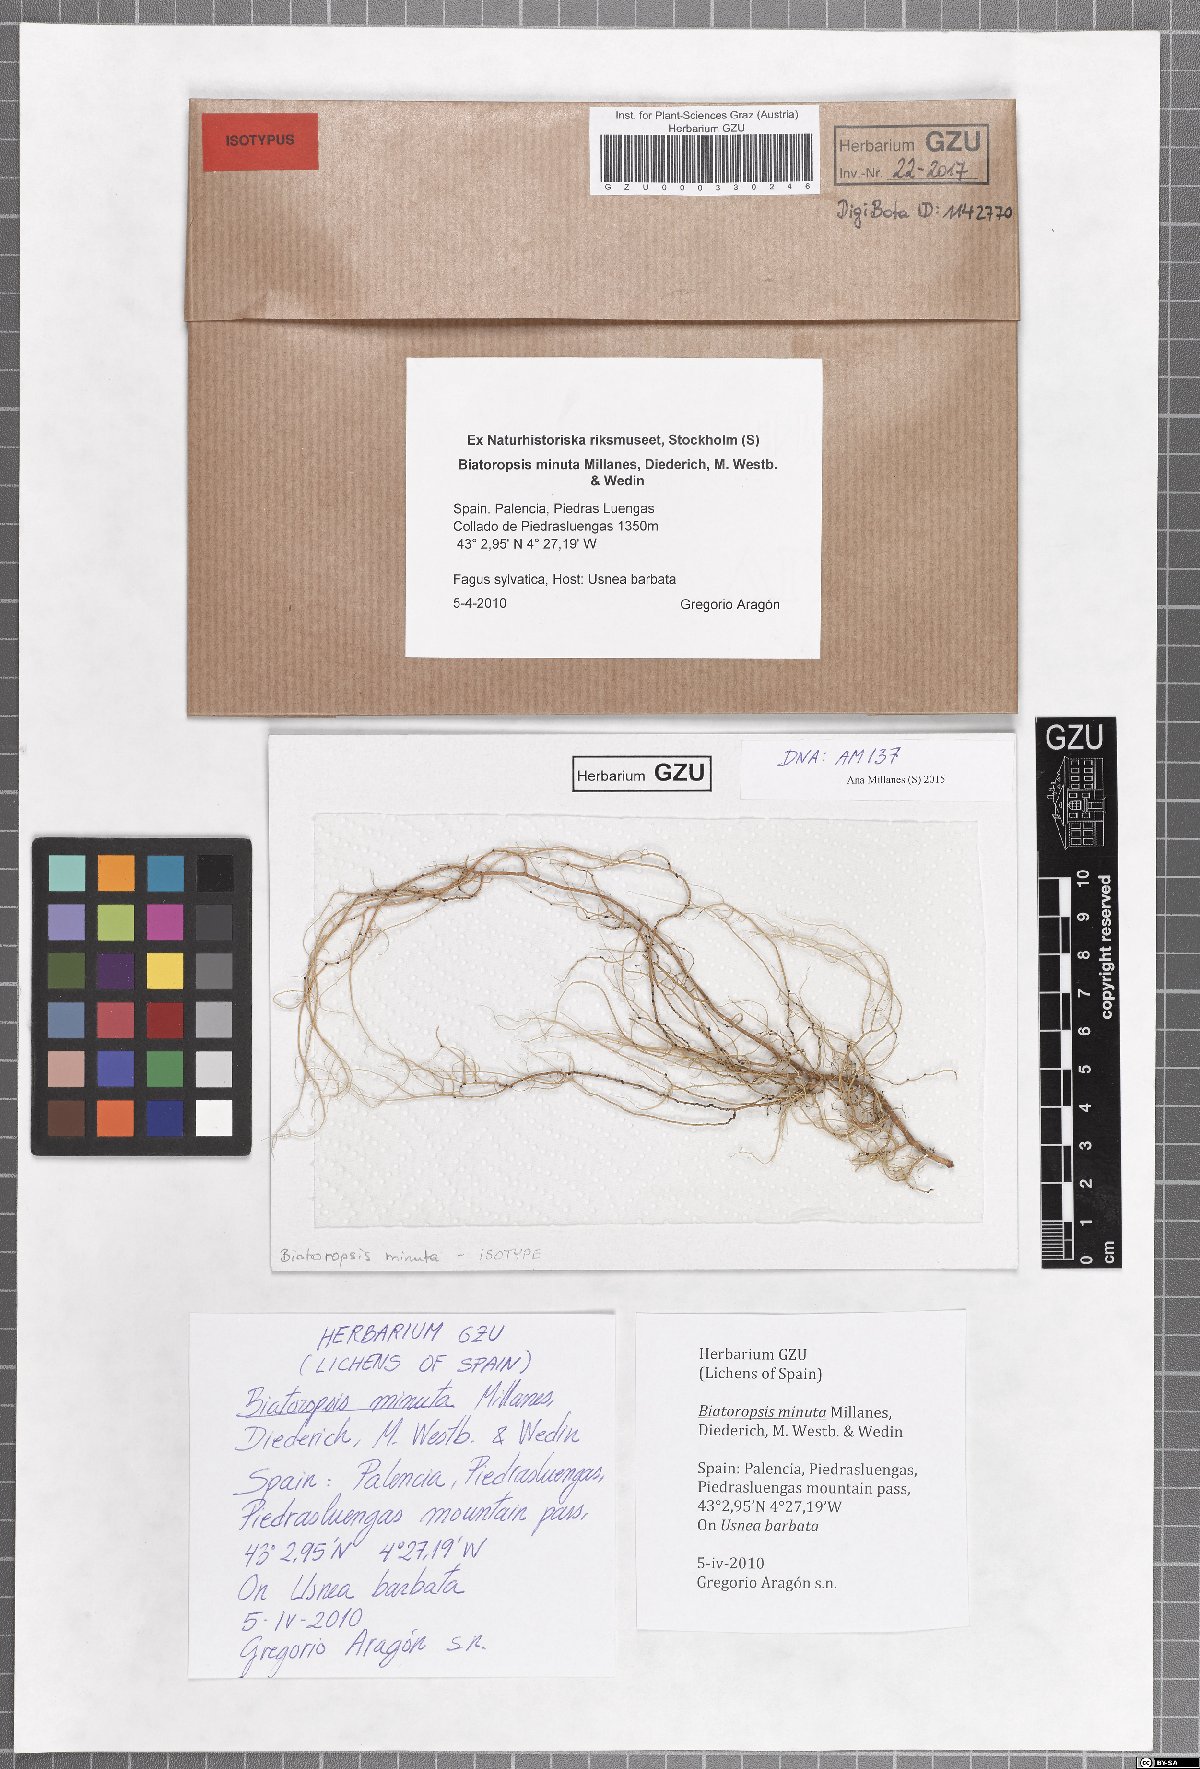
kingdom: Fungi
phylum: Basidiomycota
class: Tremellomycetes
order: Tremellales
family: Bulleraceae
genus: Biatoropsis
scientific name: Biatoropsis minuta
